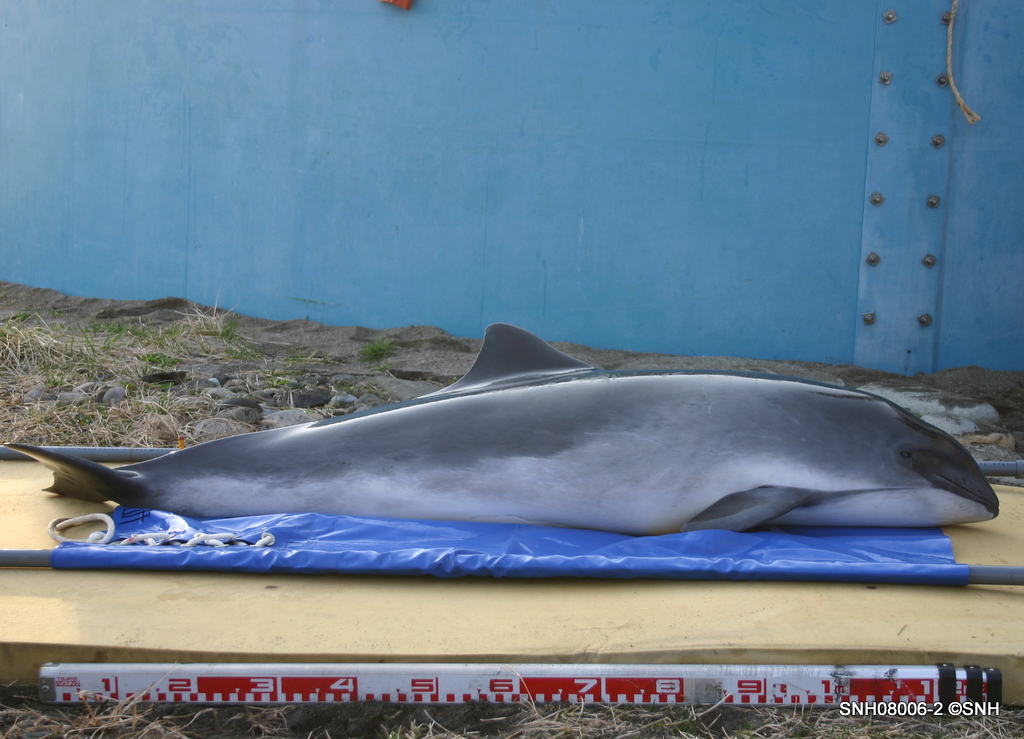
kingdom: Animalia
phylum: Chordata
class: Mammalia
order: Cetacea
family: Phocoenidae
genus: Phocoena
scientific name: Phocoena phocoena
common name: Harbour porpoise
